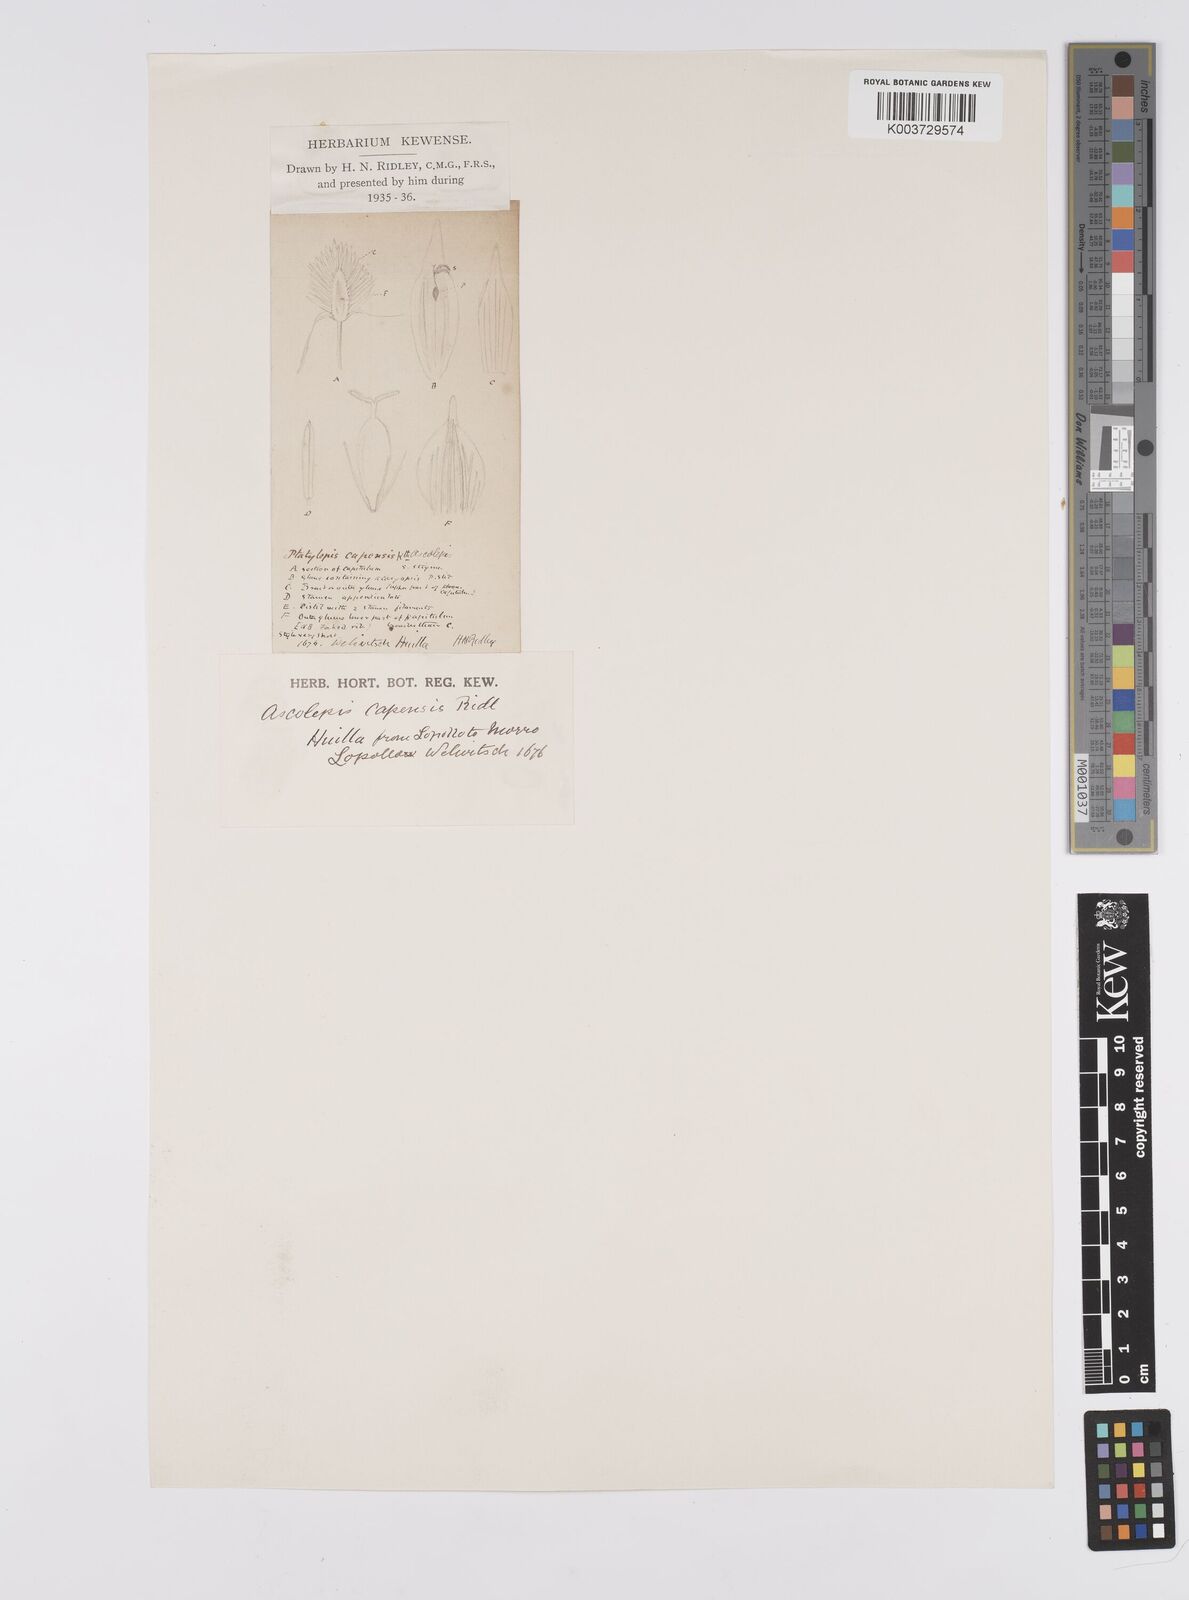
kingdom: Plantae
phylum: Tracheophyta
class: Liliopsida
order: Poales
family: Cyperaceae
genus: Cyperus
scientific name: Cyperus
